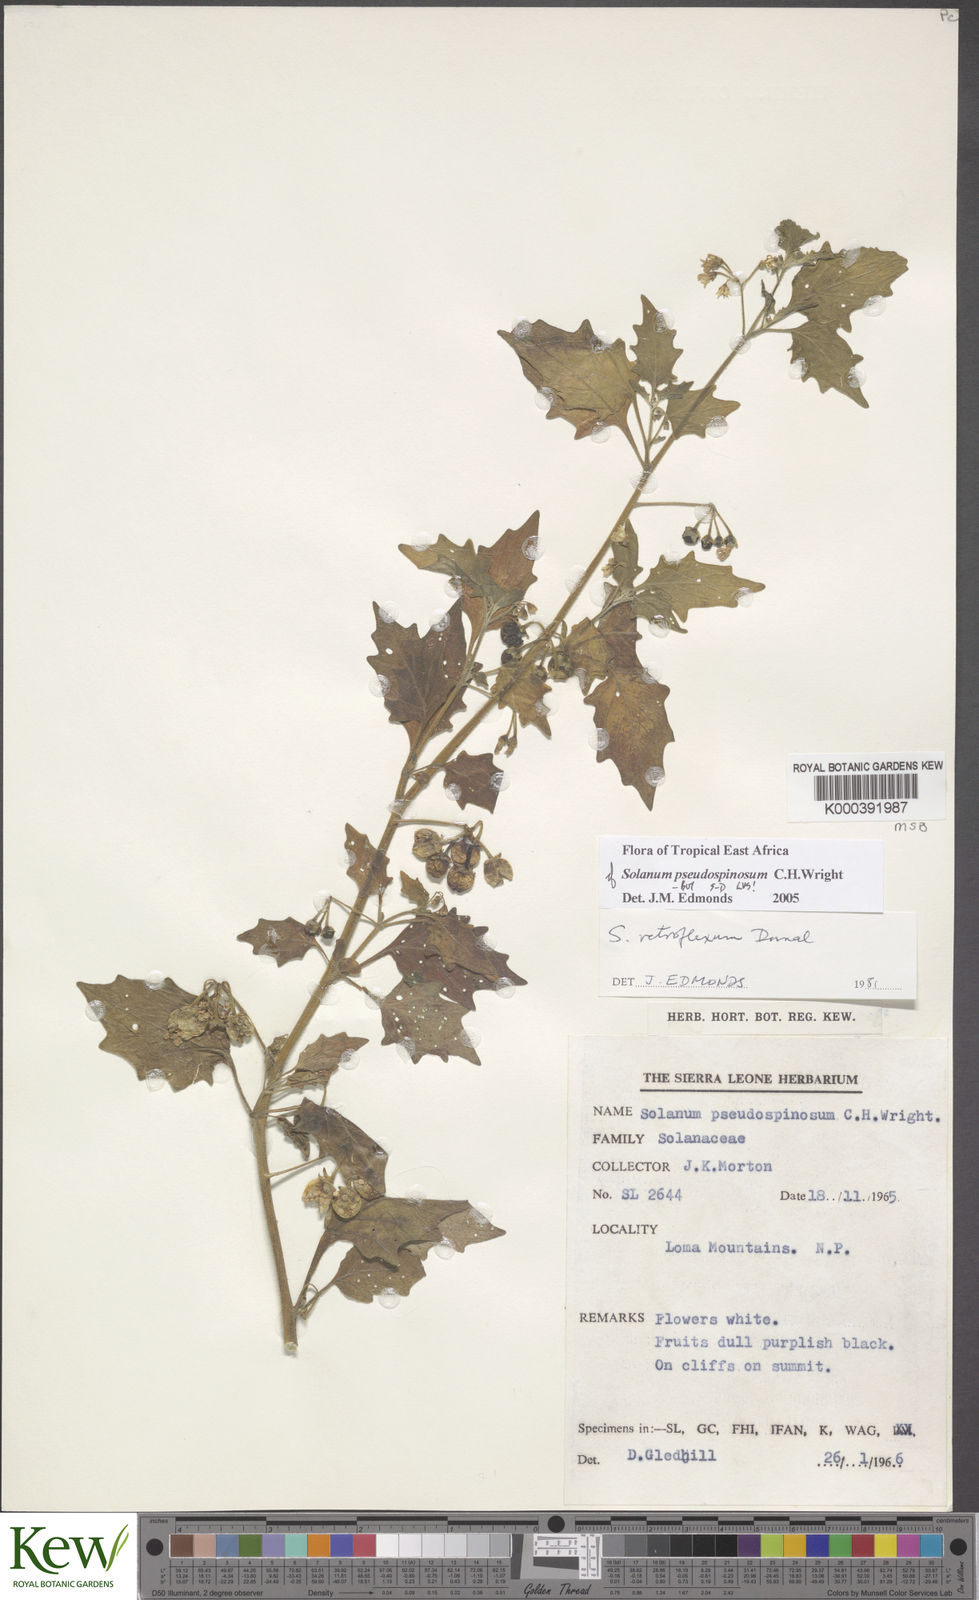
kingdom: Plantae
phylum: Tracheophyta
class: Magnoliopsida
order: Solanales
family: Solanaceae
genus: Solanum
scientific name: Solanum pseudospinosum
